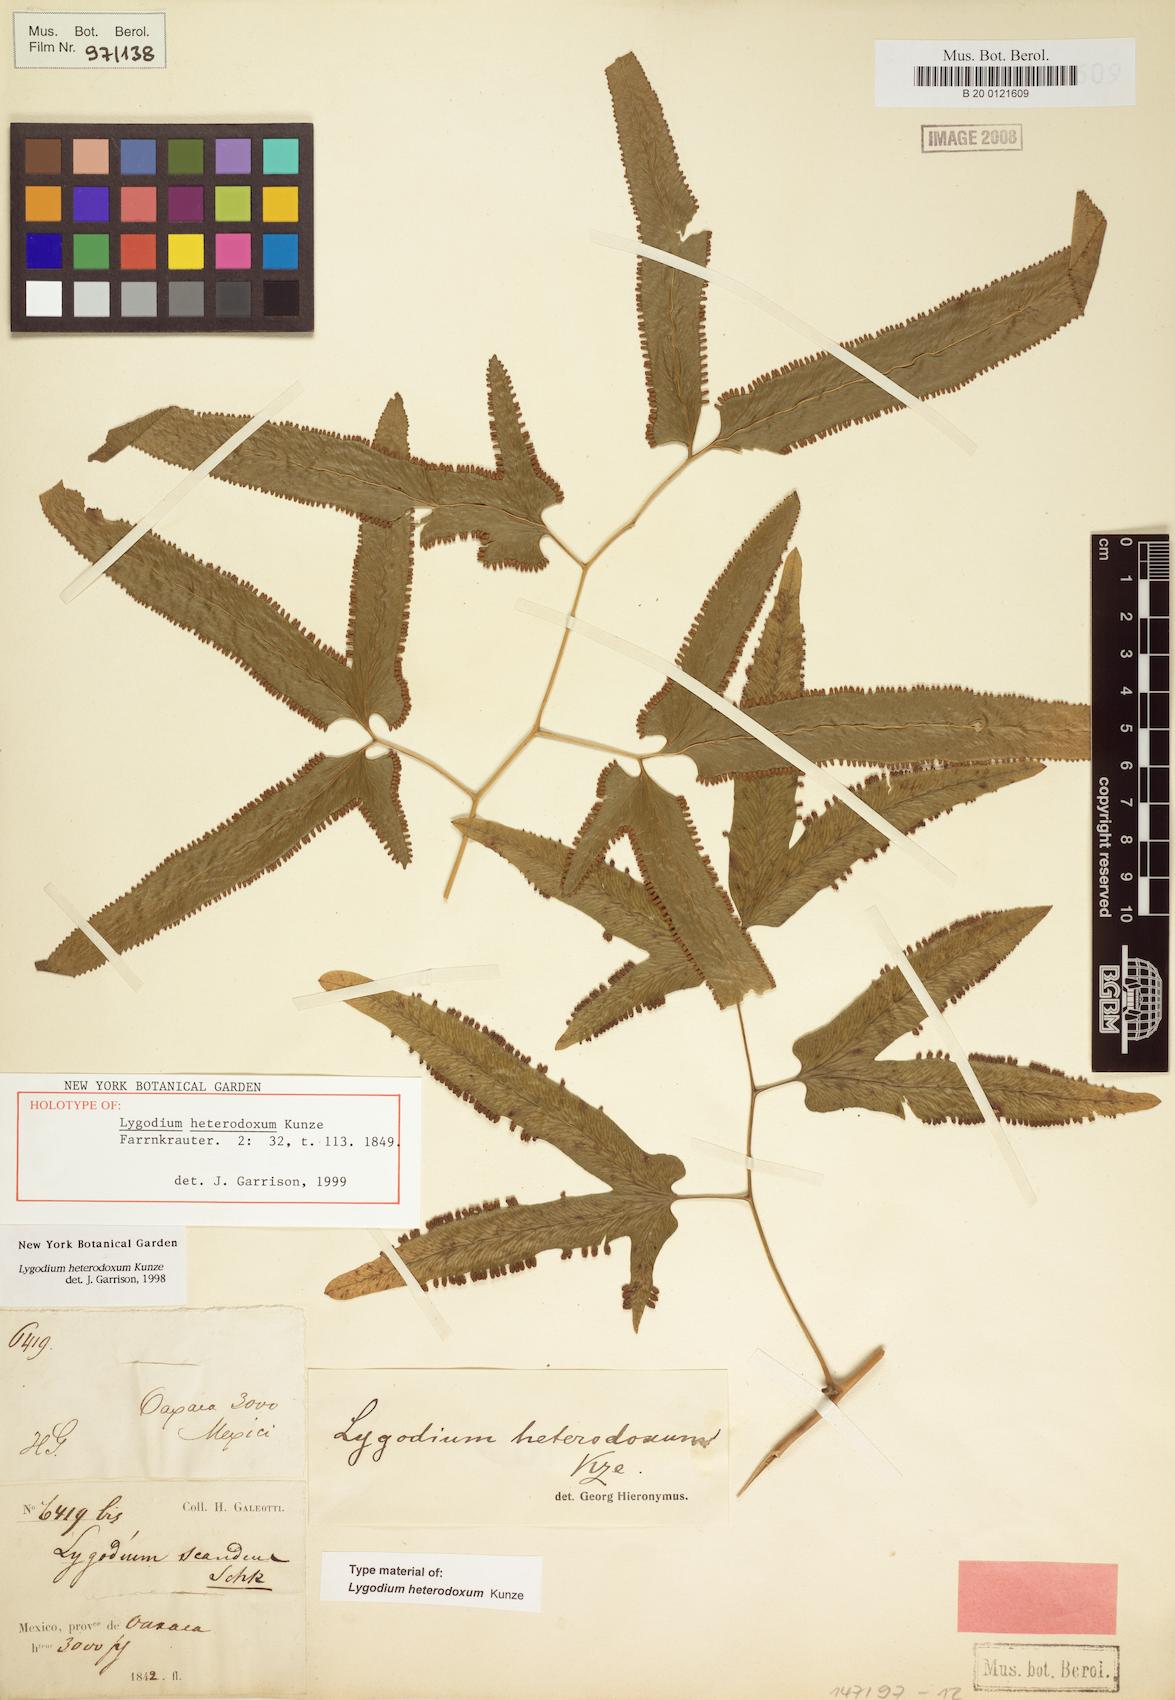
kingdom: Plantae
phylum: Tracheophyta
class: Polypodiopsida
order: Schizaeales
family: Lygodiaceae
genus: Lygodium
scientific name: Lygodium heterodoxum
